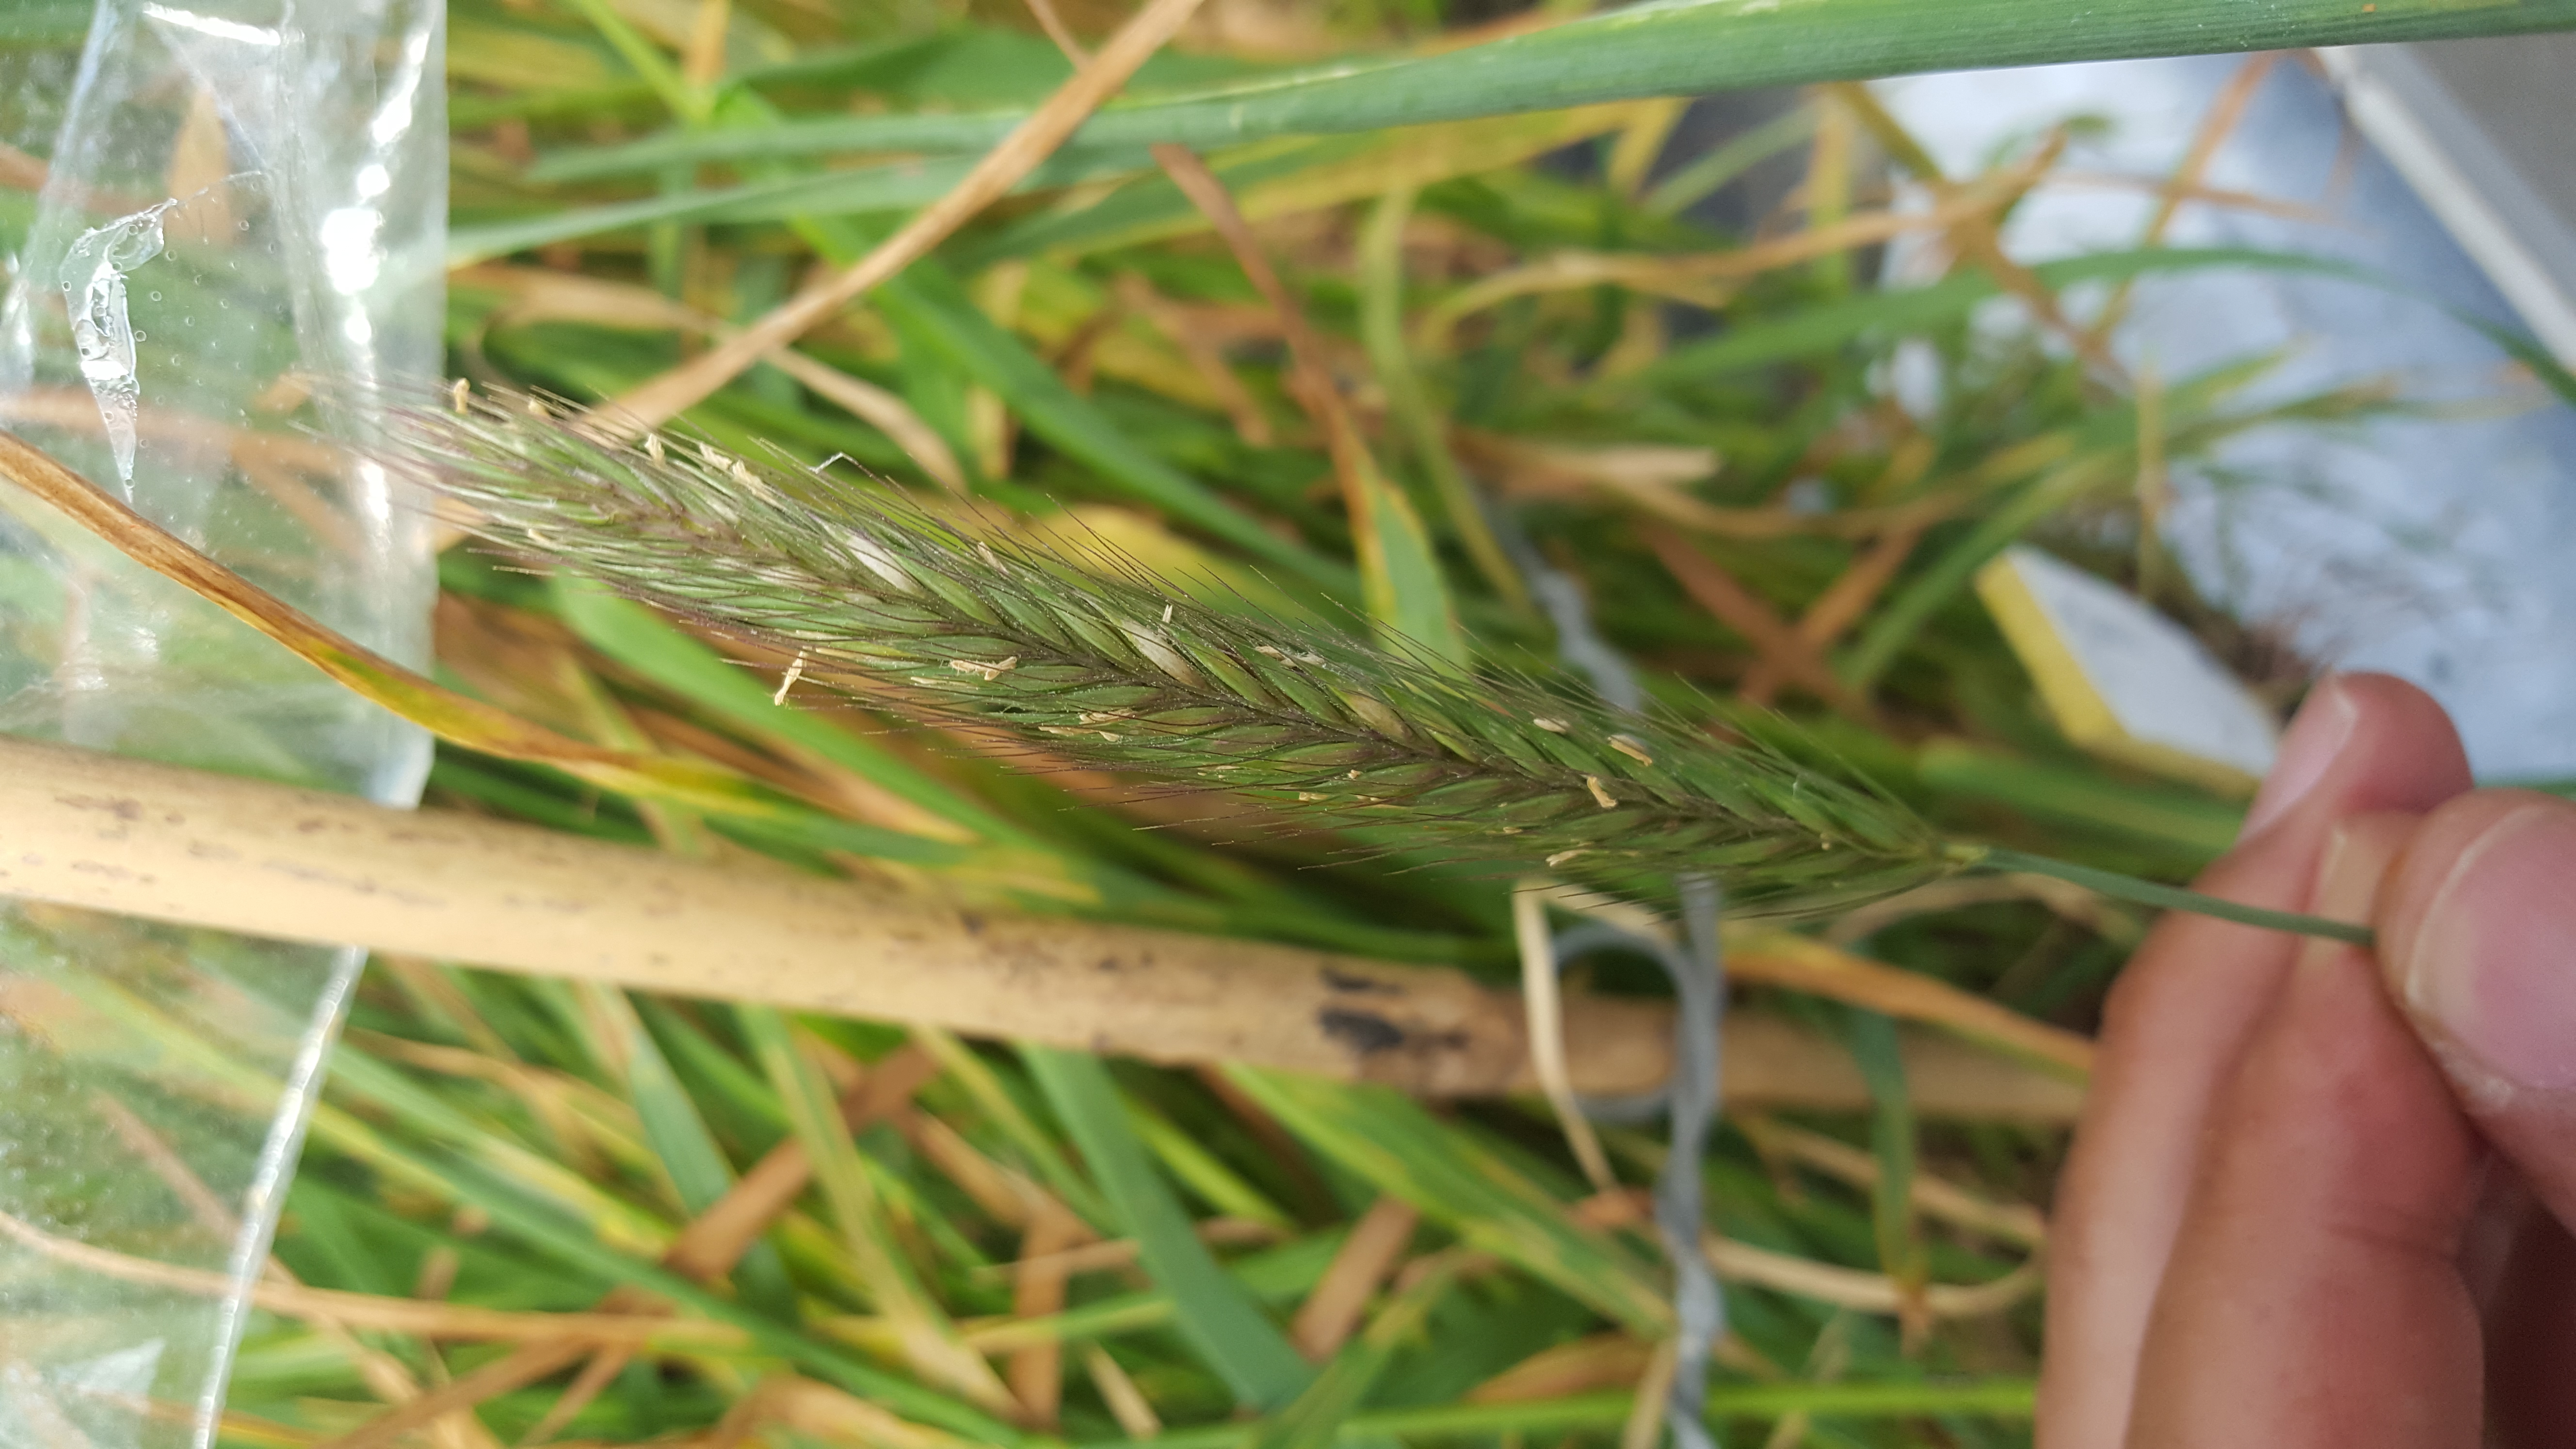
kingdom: Plantae
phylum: Tracheophyta
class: Liliopsida
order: Poales
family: Poaceae
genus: Hordeum
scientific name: Hordeum parodii
